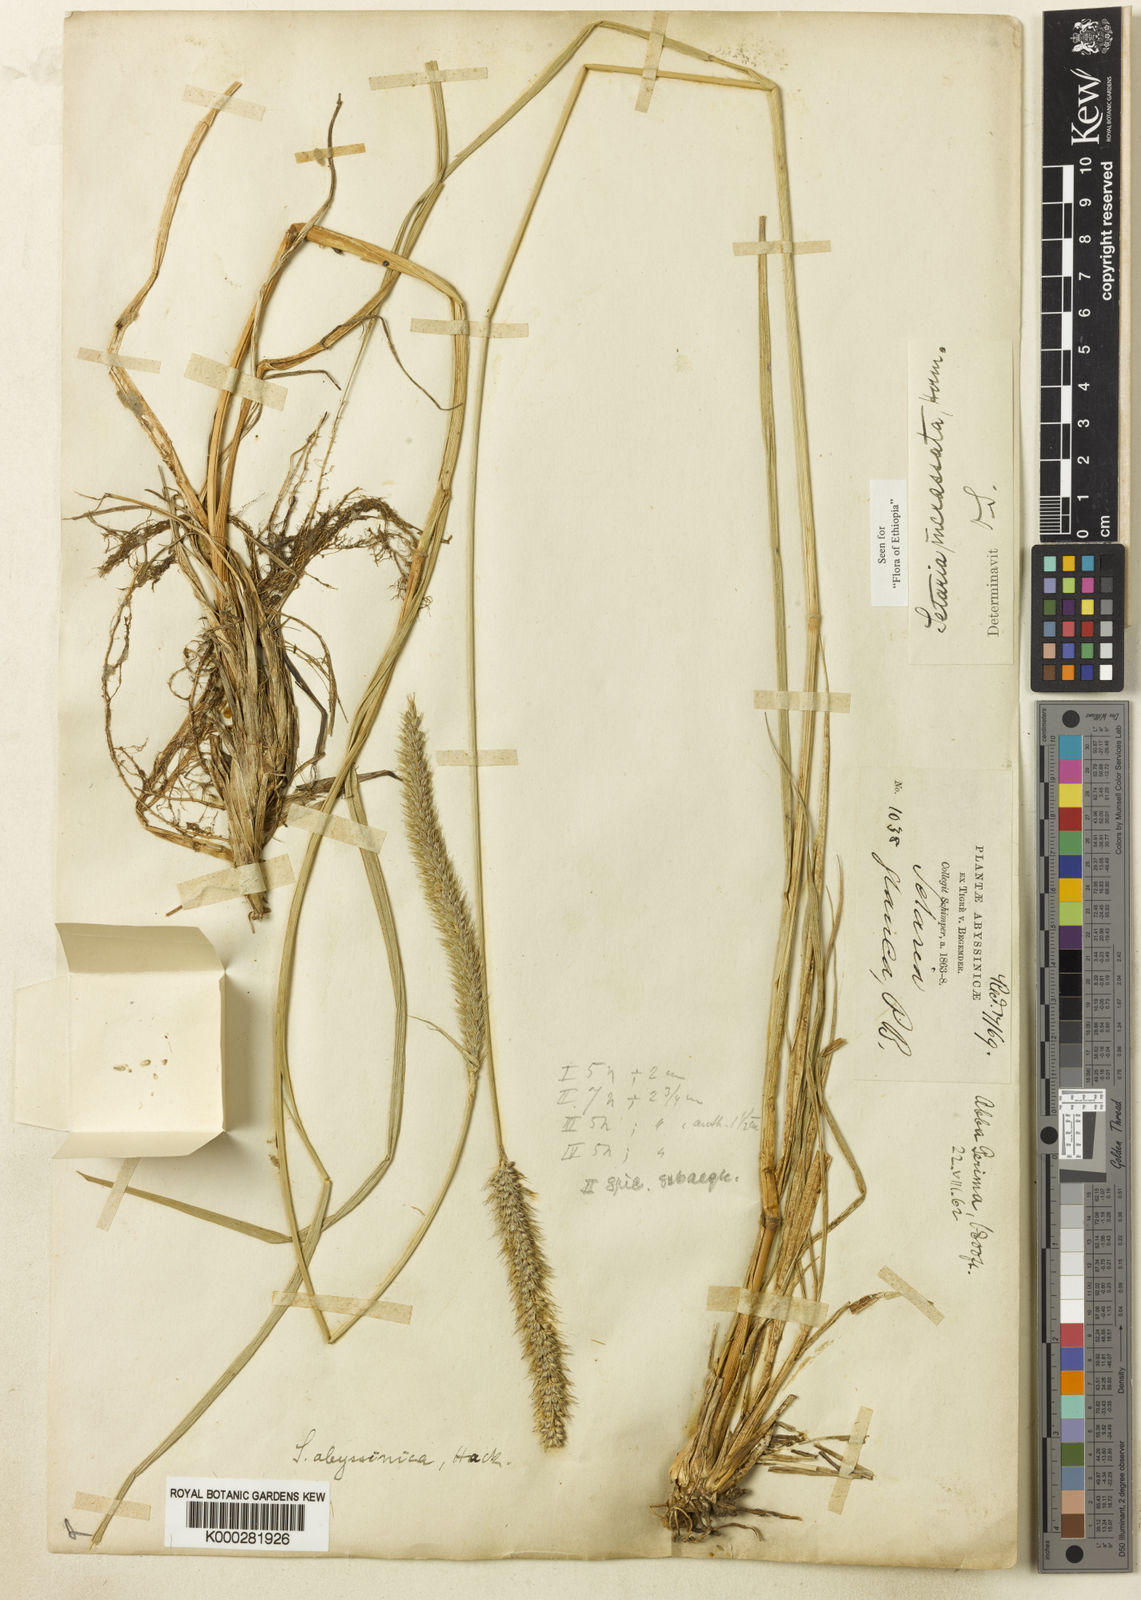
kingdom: Plantae
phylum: Tracheophyta
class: Liliopsida
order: Poales
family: Poaceae
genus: Setaria
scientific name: Setaria incrassata
